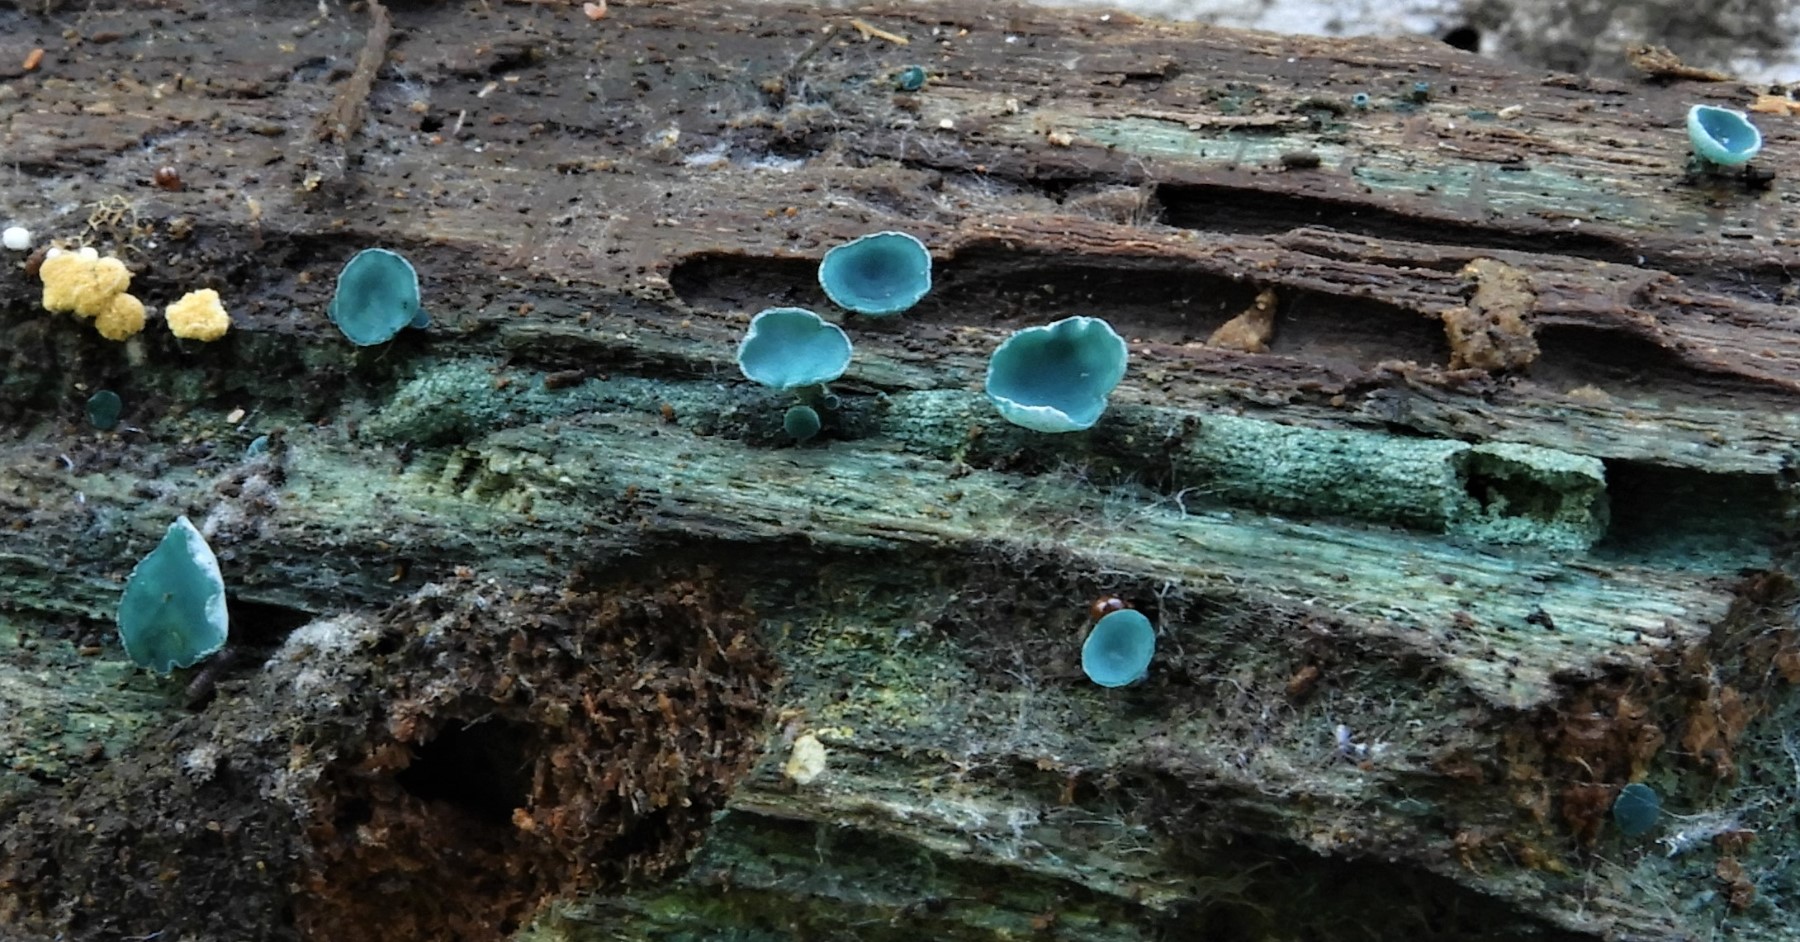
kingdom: Fungi
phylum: Ascomycota
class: Leotiomycetes
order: Helotiales
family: Chlorociboriaceae
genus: Chlorociboria
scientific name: Chlorociboria aeruginascens
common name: almindelig grønskive
